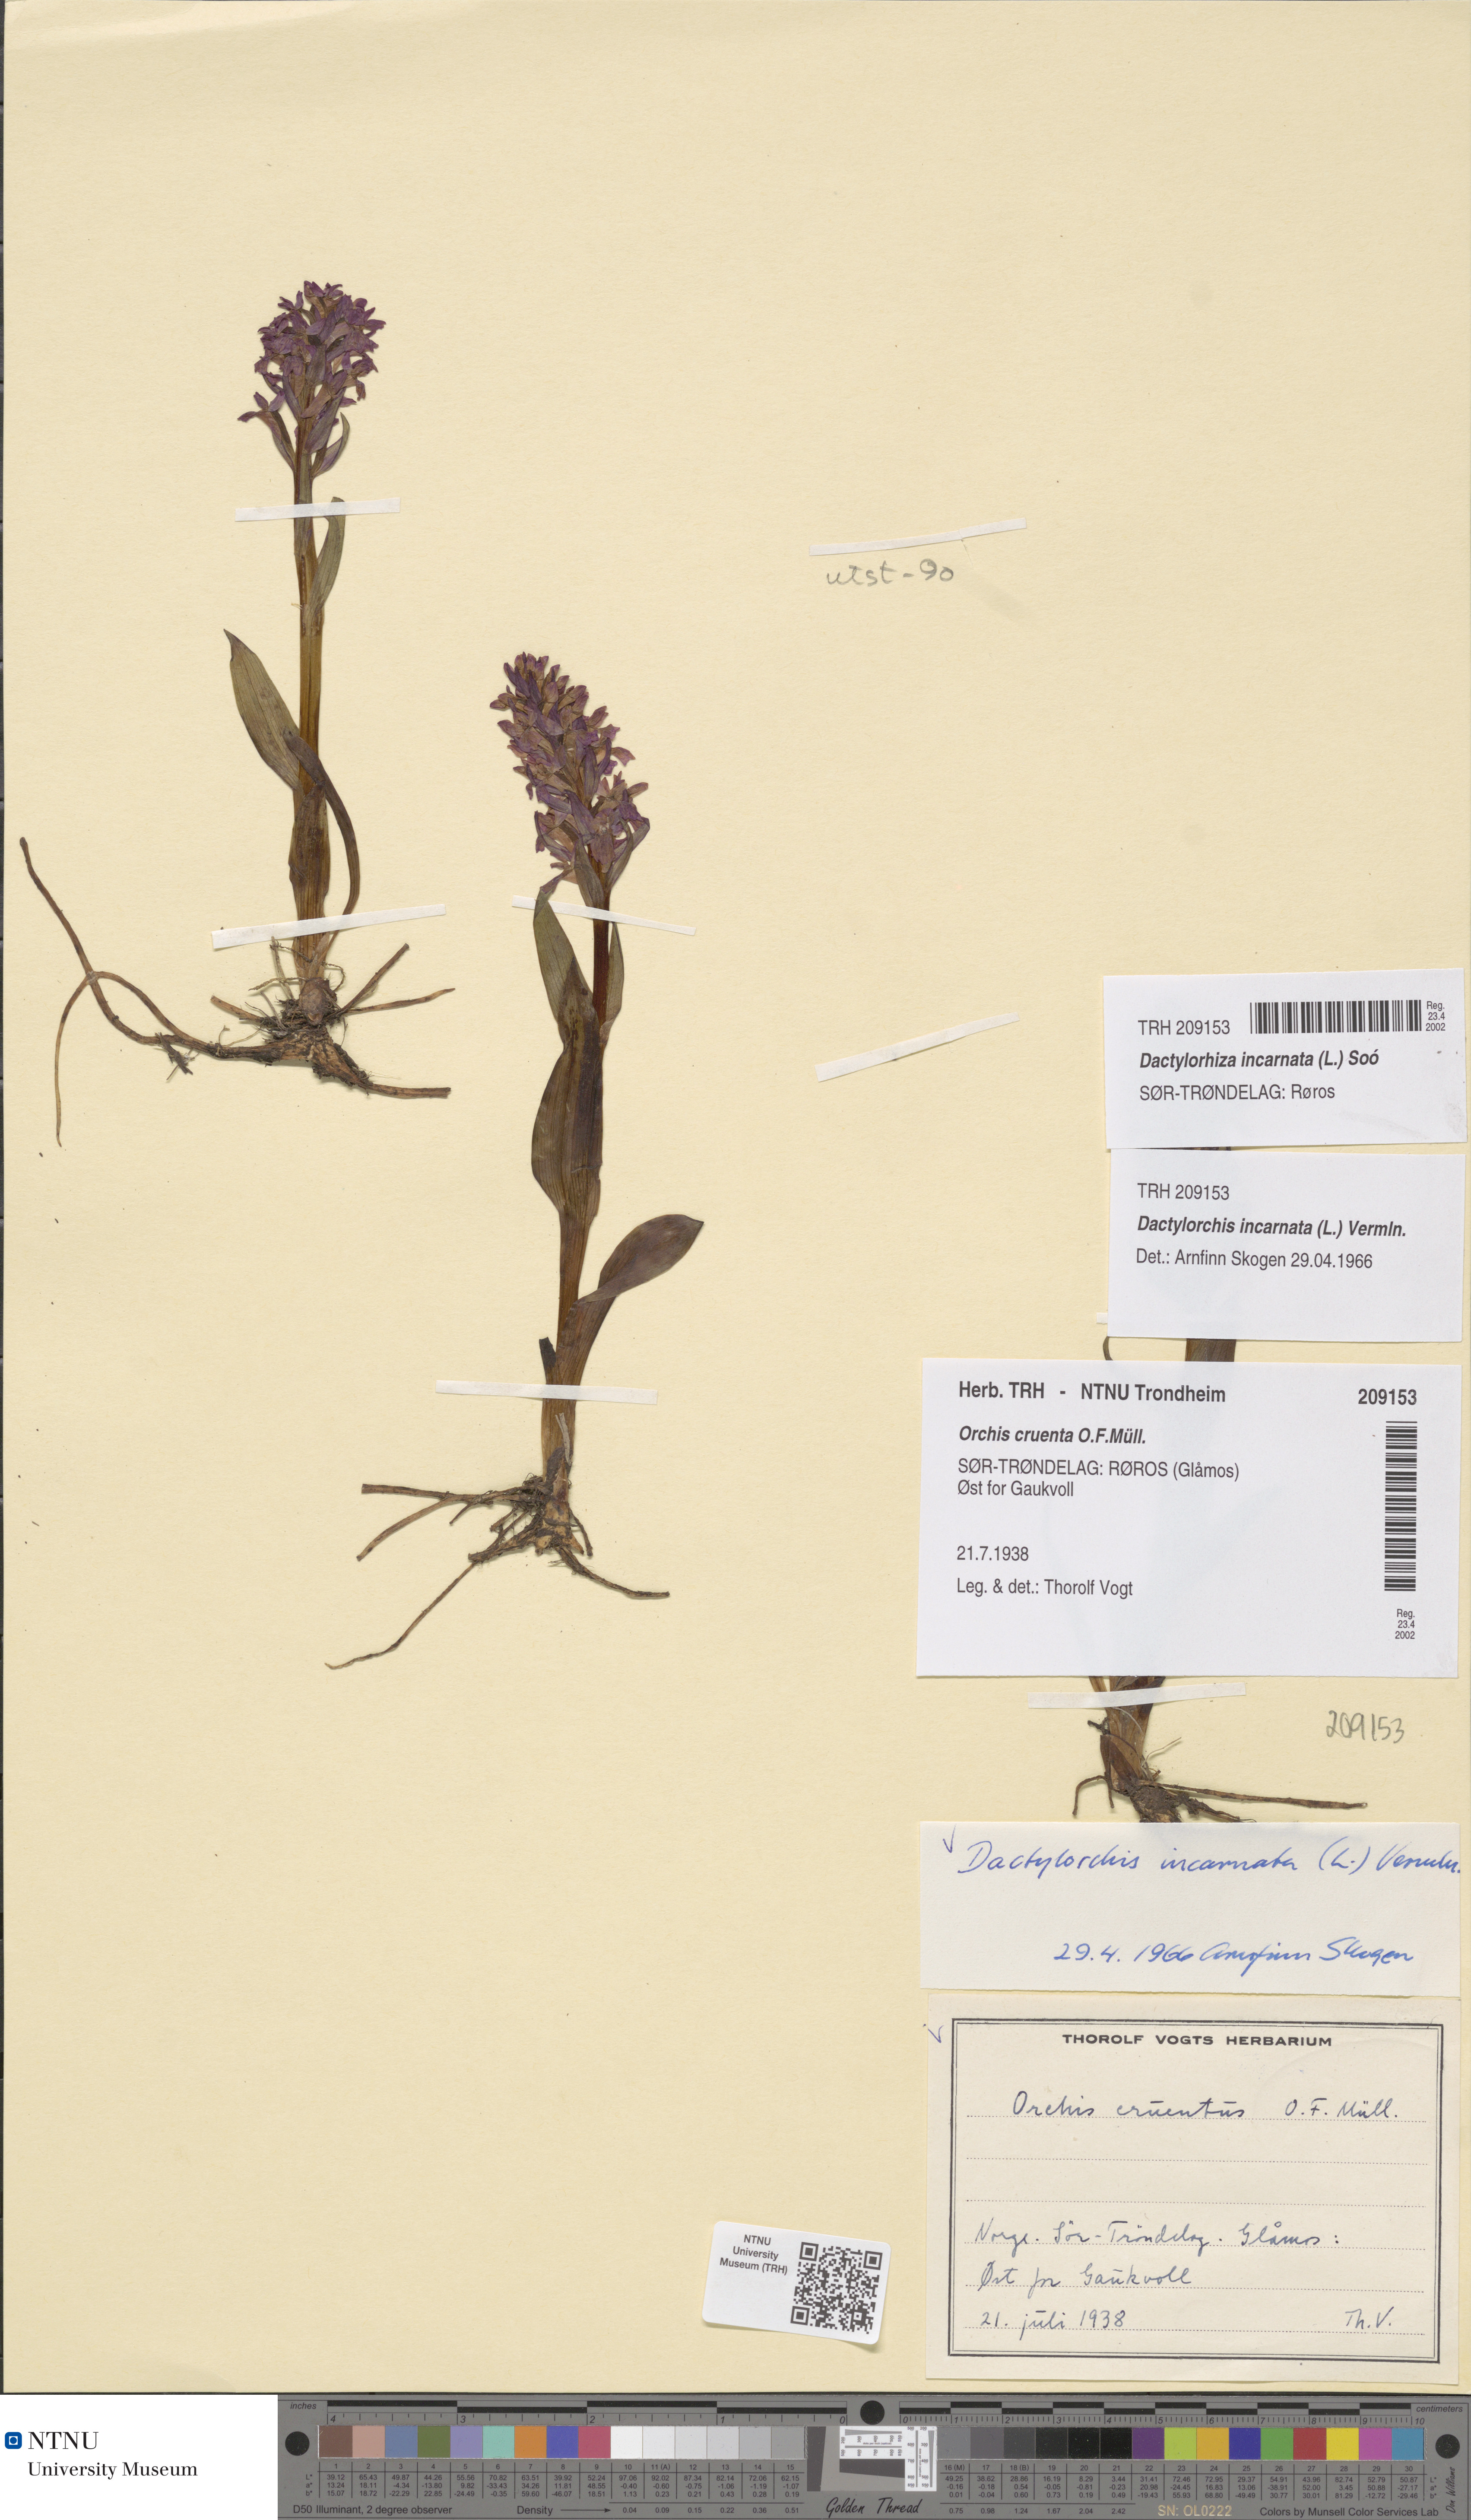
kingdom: Plantae
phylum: Tracheophyta
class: Liliopsida
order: Asparagales
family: Orchidaceae
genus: Dactylorhiza
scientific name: Dactylorhiza incarnata
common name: Early marsh-orchid
